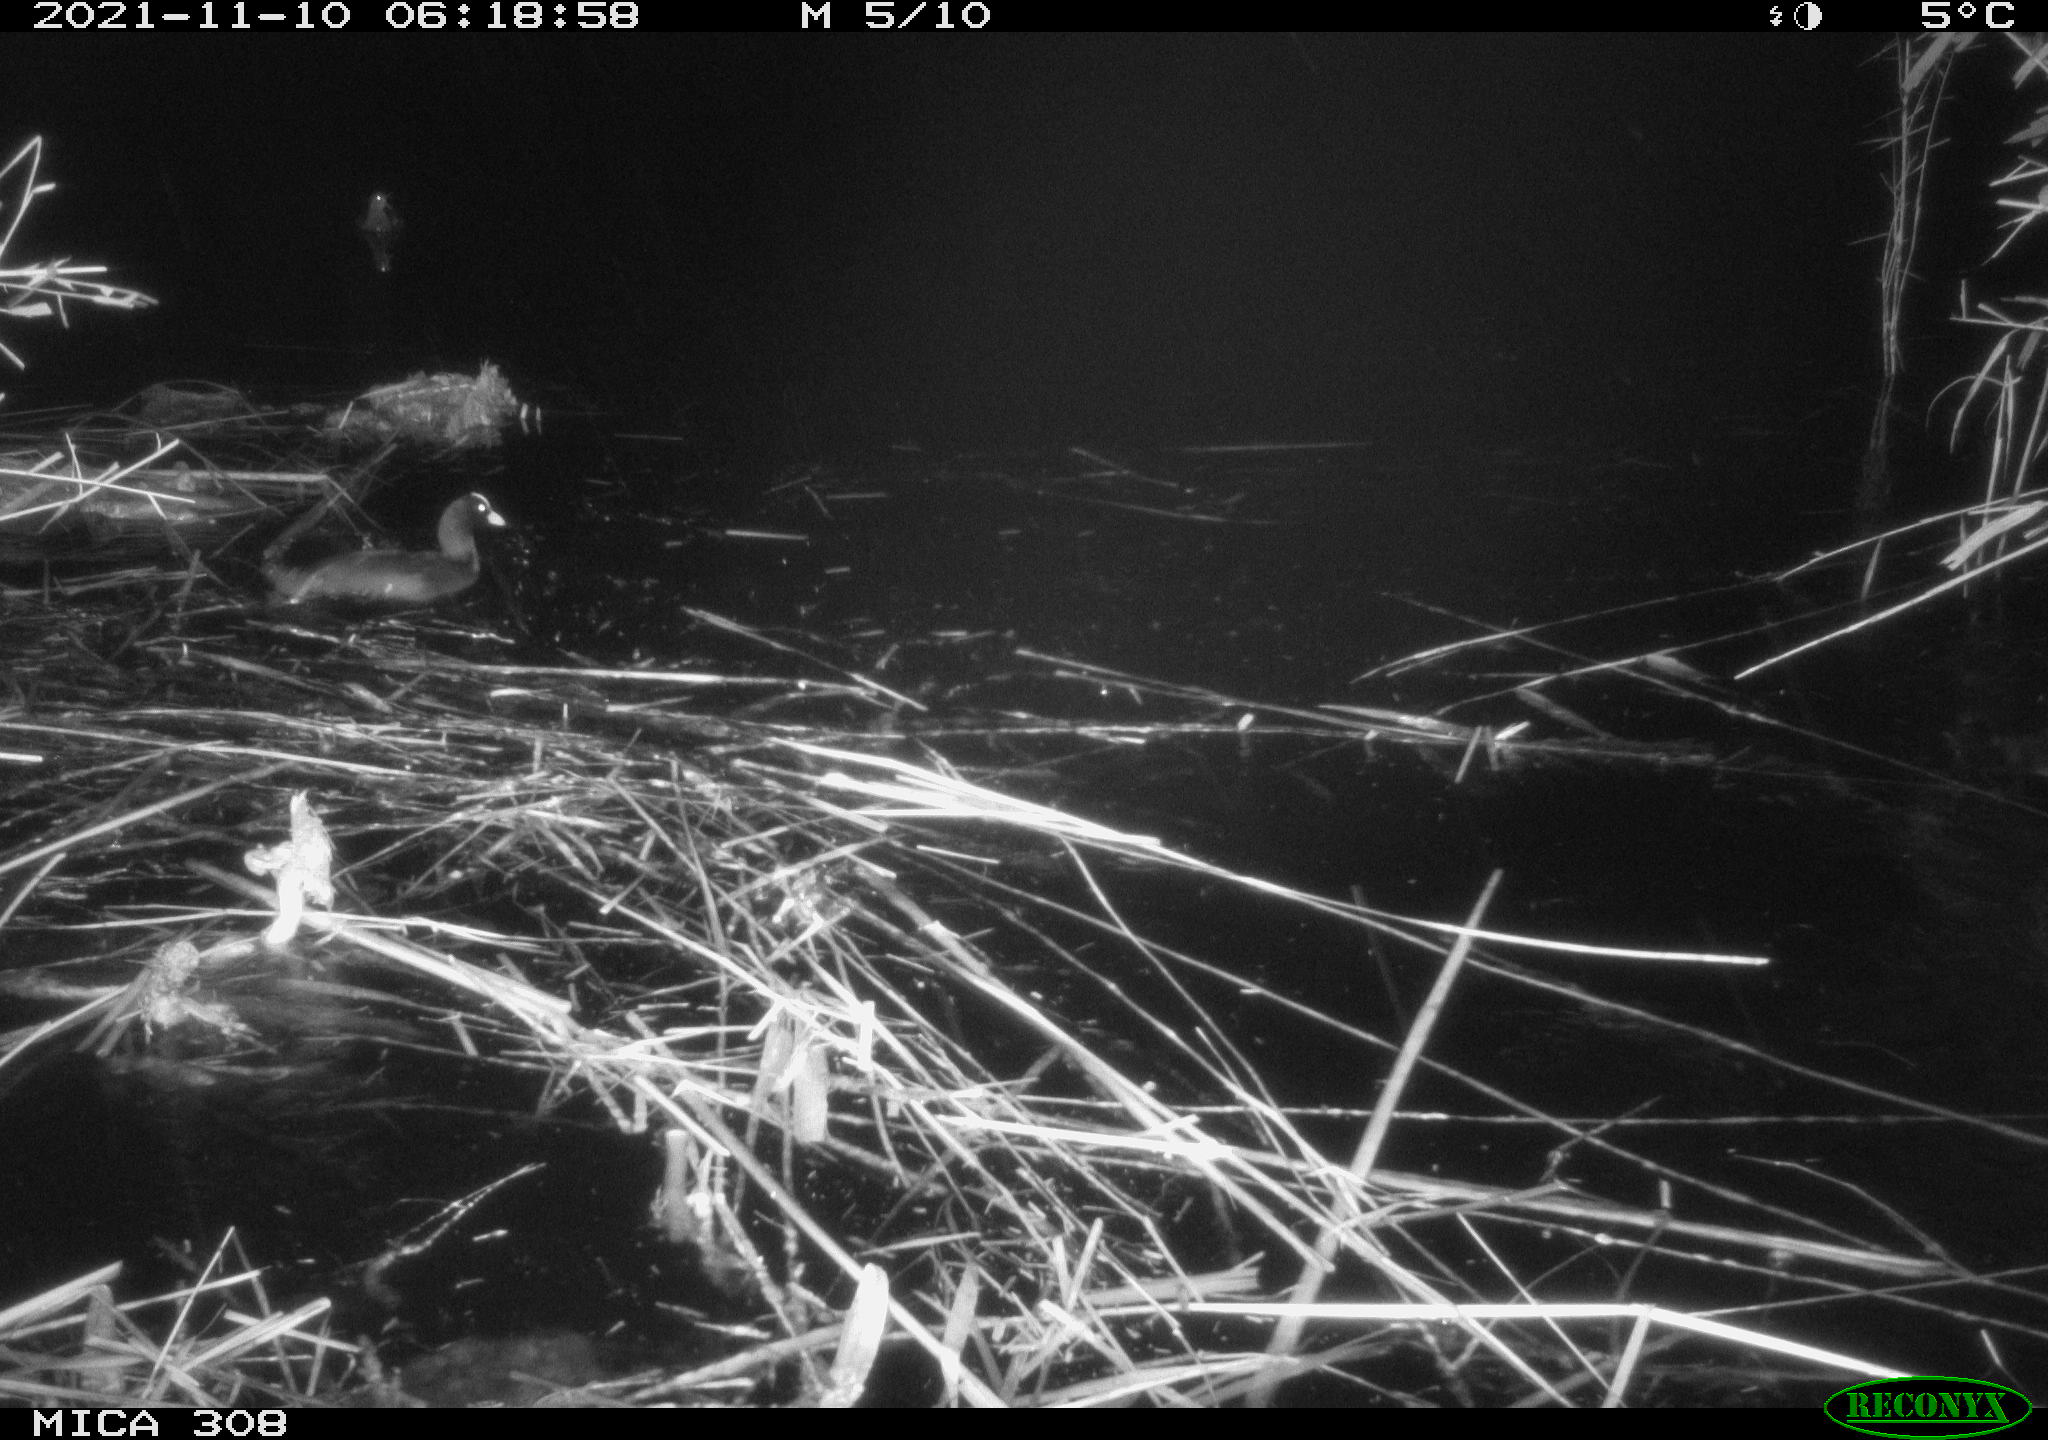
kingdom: Animalia
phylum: Chordata
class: Aves
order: Gruiformes
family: Rallidae
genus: Fulica
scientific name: Fulica atra
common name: Eurasian coot
